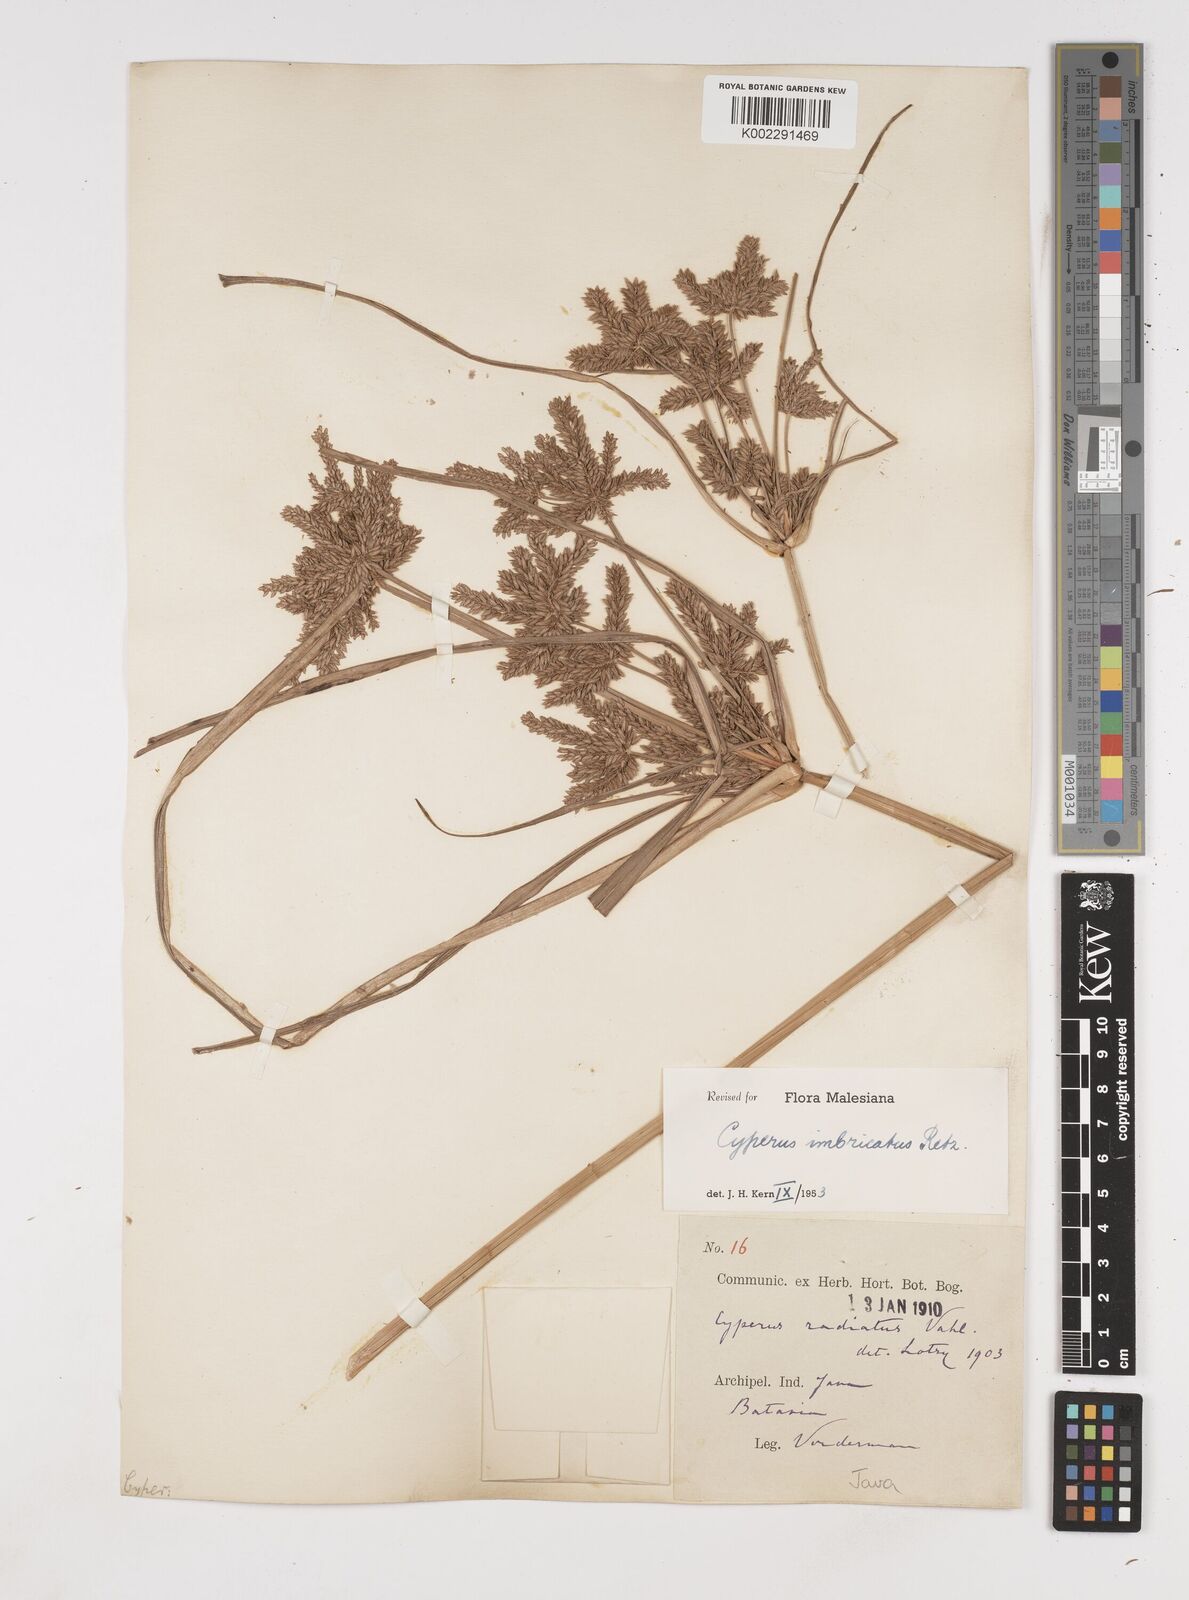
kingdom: Plantae
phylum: Tracheophyta
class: Liliopsida
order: Poales
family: Cyperaceae
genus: Cyperus
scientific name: Cyperus imbricatus
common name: Shingle flatsedge
